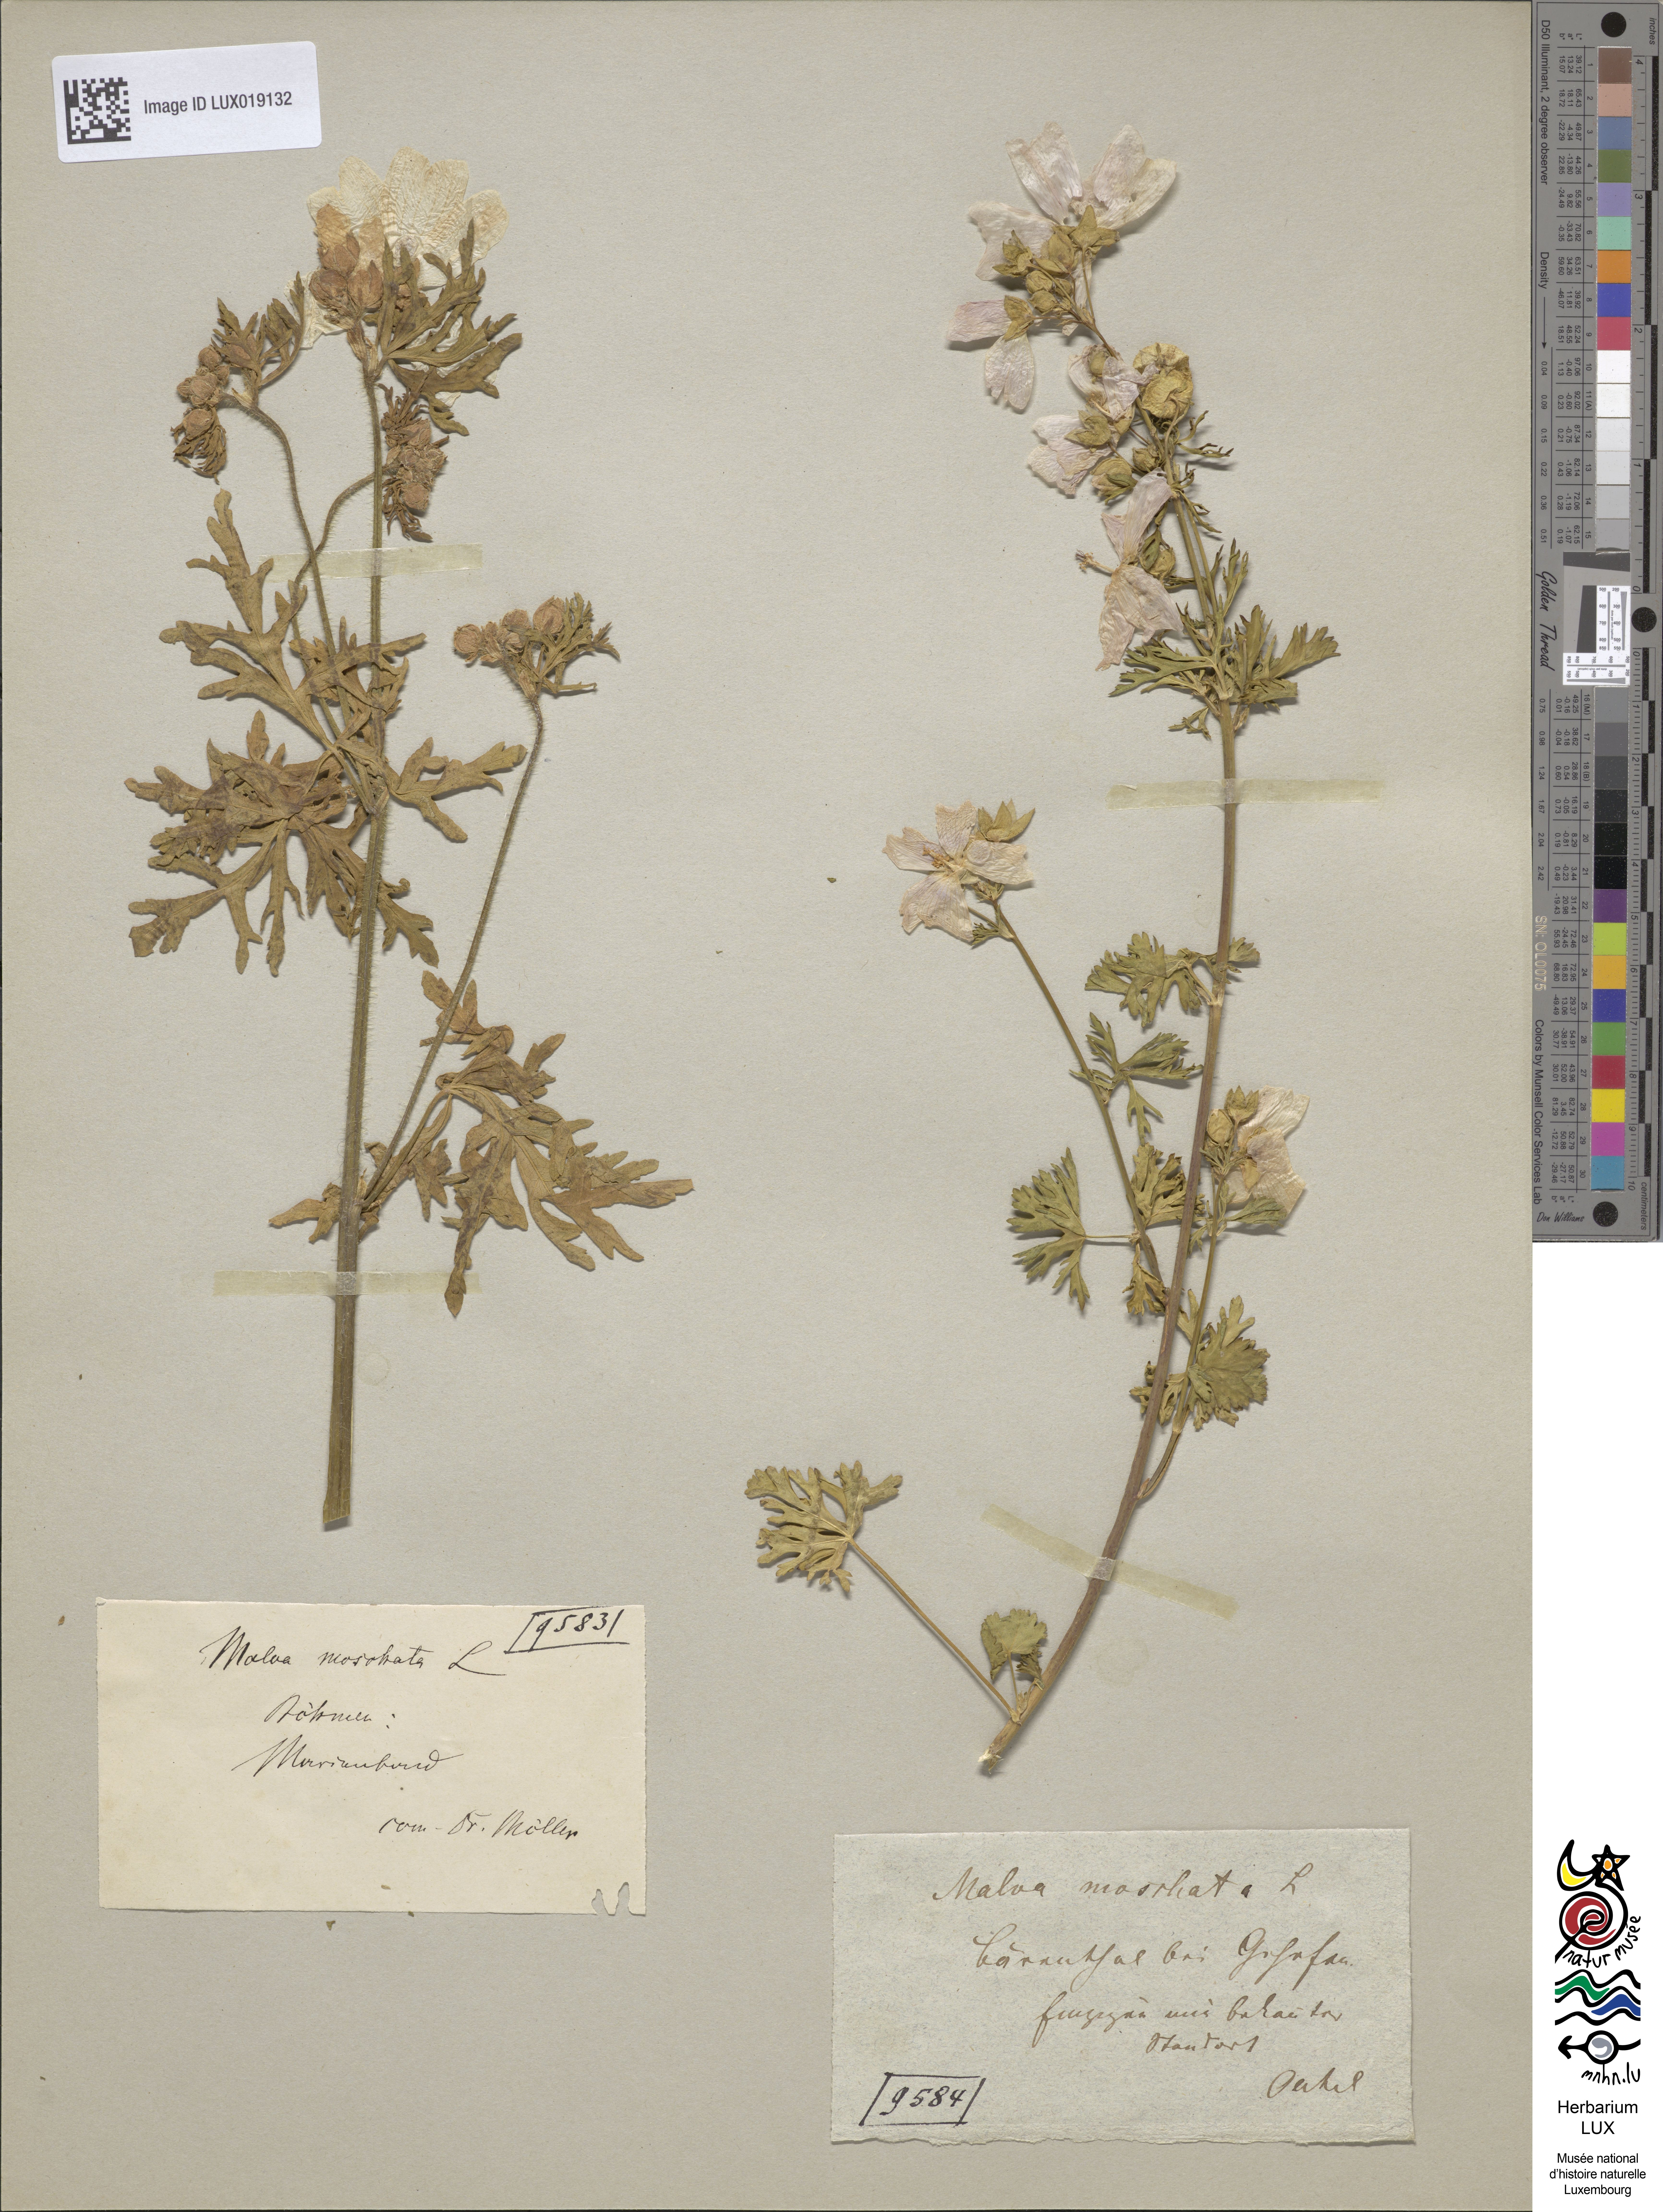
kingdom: Plantae
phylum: Tracheophyta
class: Magnoliopsida
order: Malvales
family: Malvaceae
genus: Malva
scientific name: Malva moschata
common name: Musk mallow
